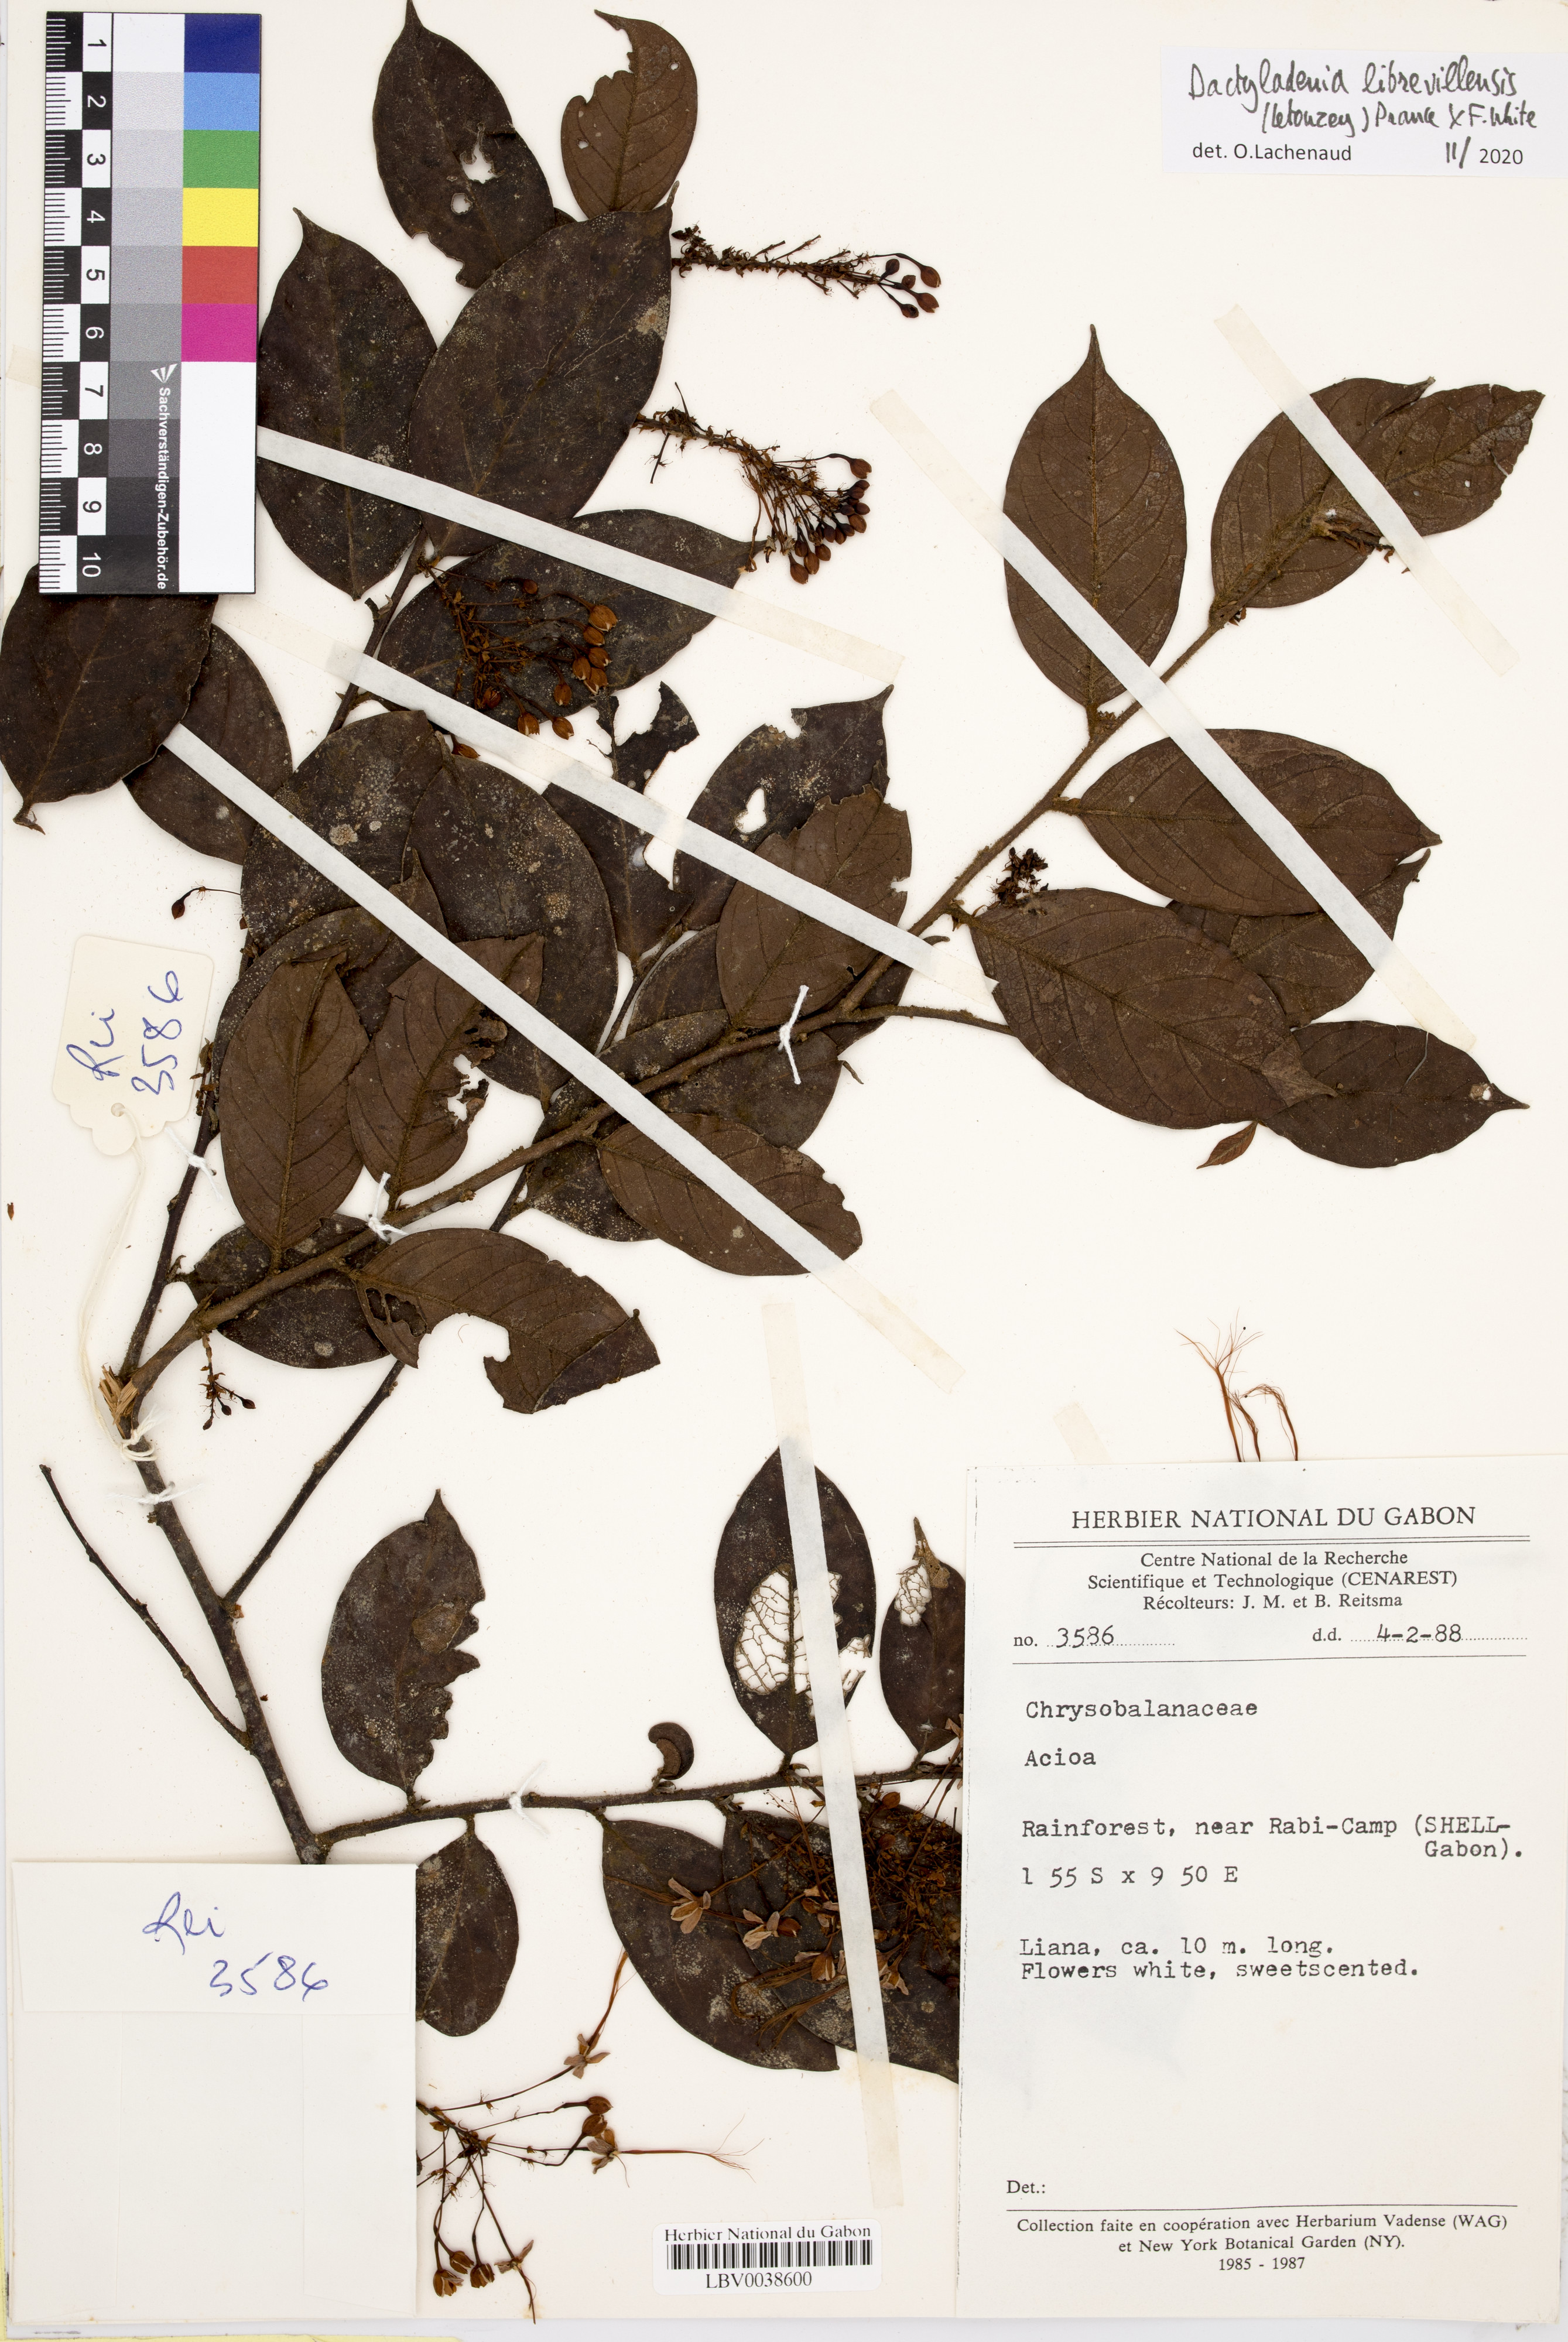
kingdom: Plantae
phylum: Tracheophyta
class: Magnoliopsida
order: Malpighiales
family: Chrysobalanaceae
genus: Dactyladenia
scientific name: Dactyladenia librevillensis
